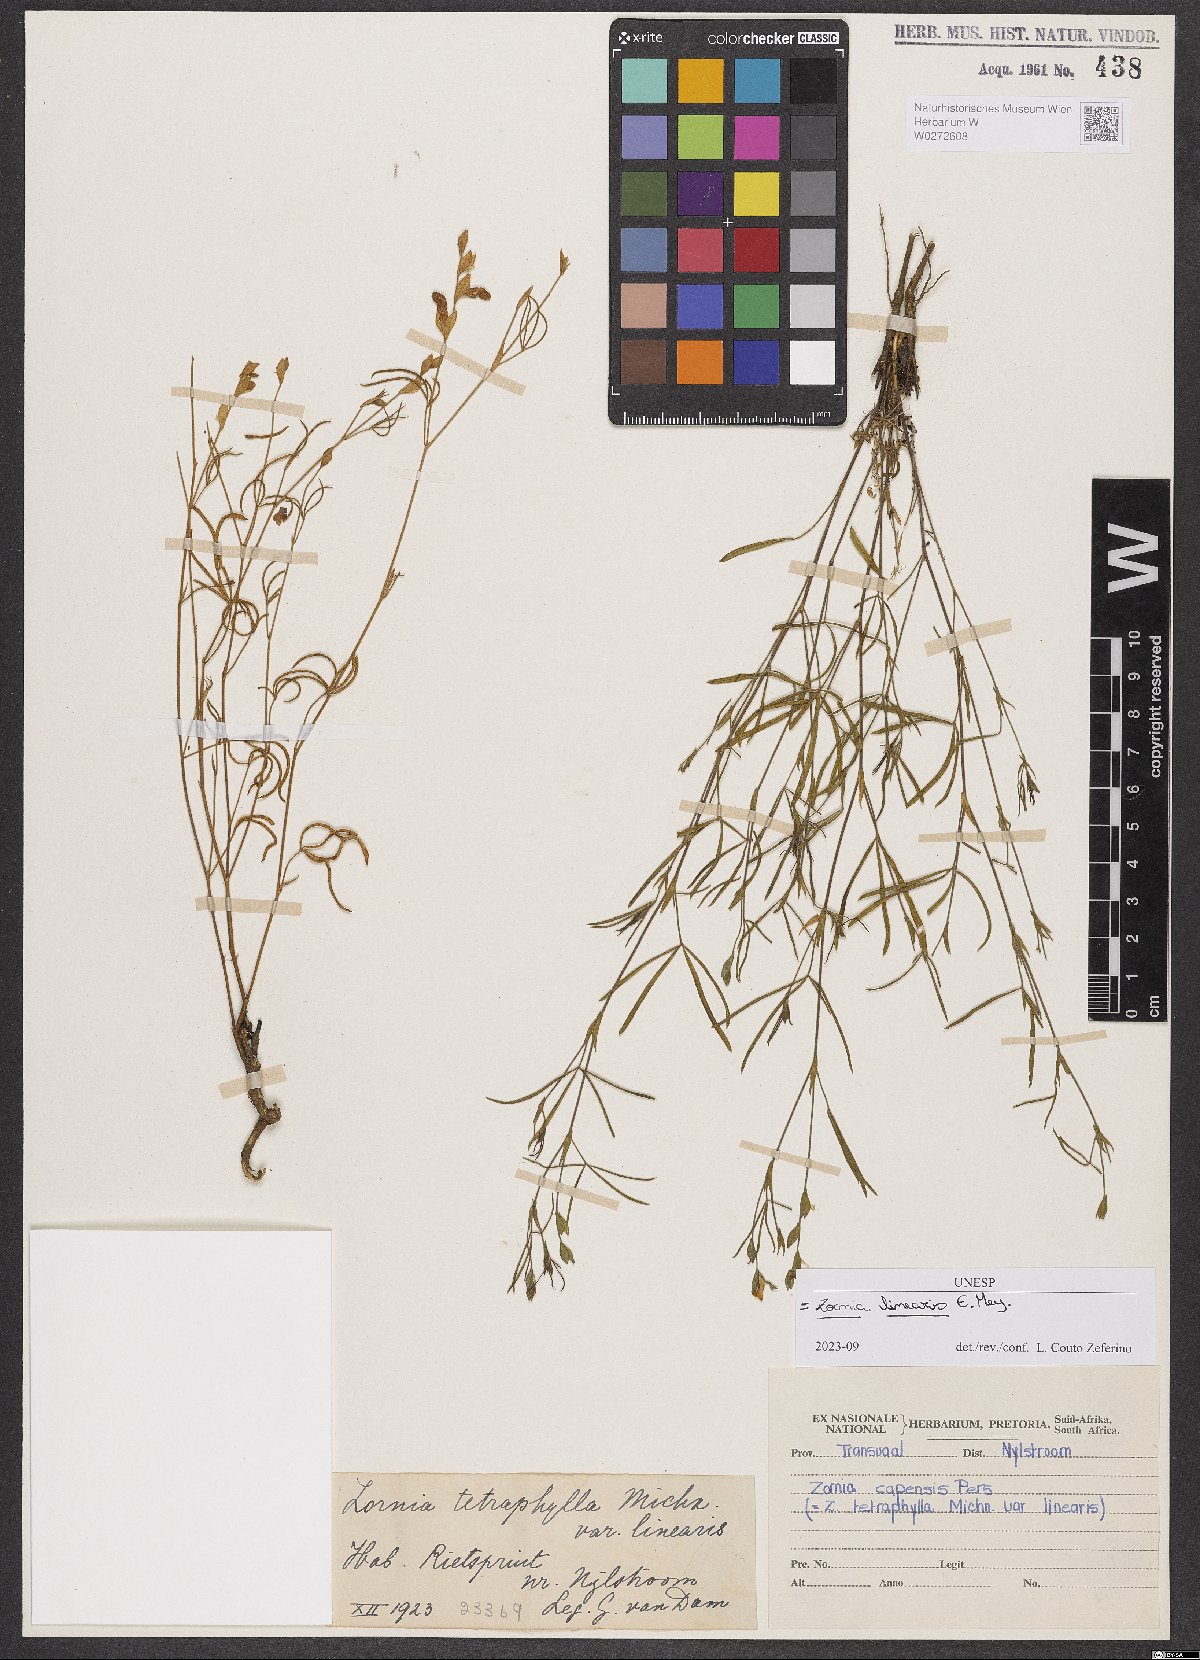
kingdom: Plantae
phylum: Tracheophyta
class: Magnoliopsida
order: Fabales
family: Fabaceae
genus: Zornia
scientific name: Zornia linearis
